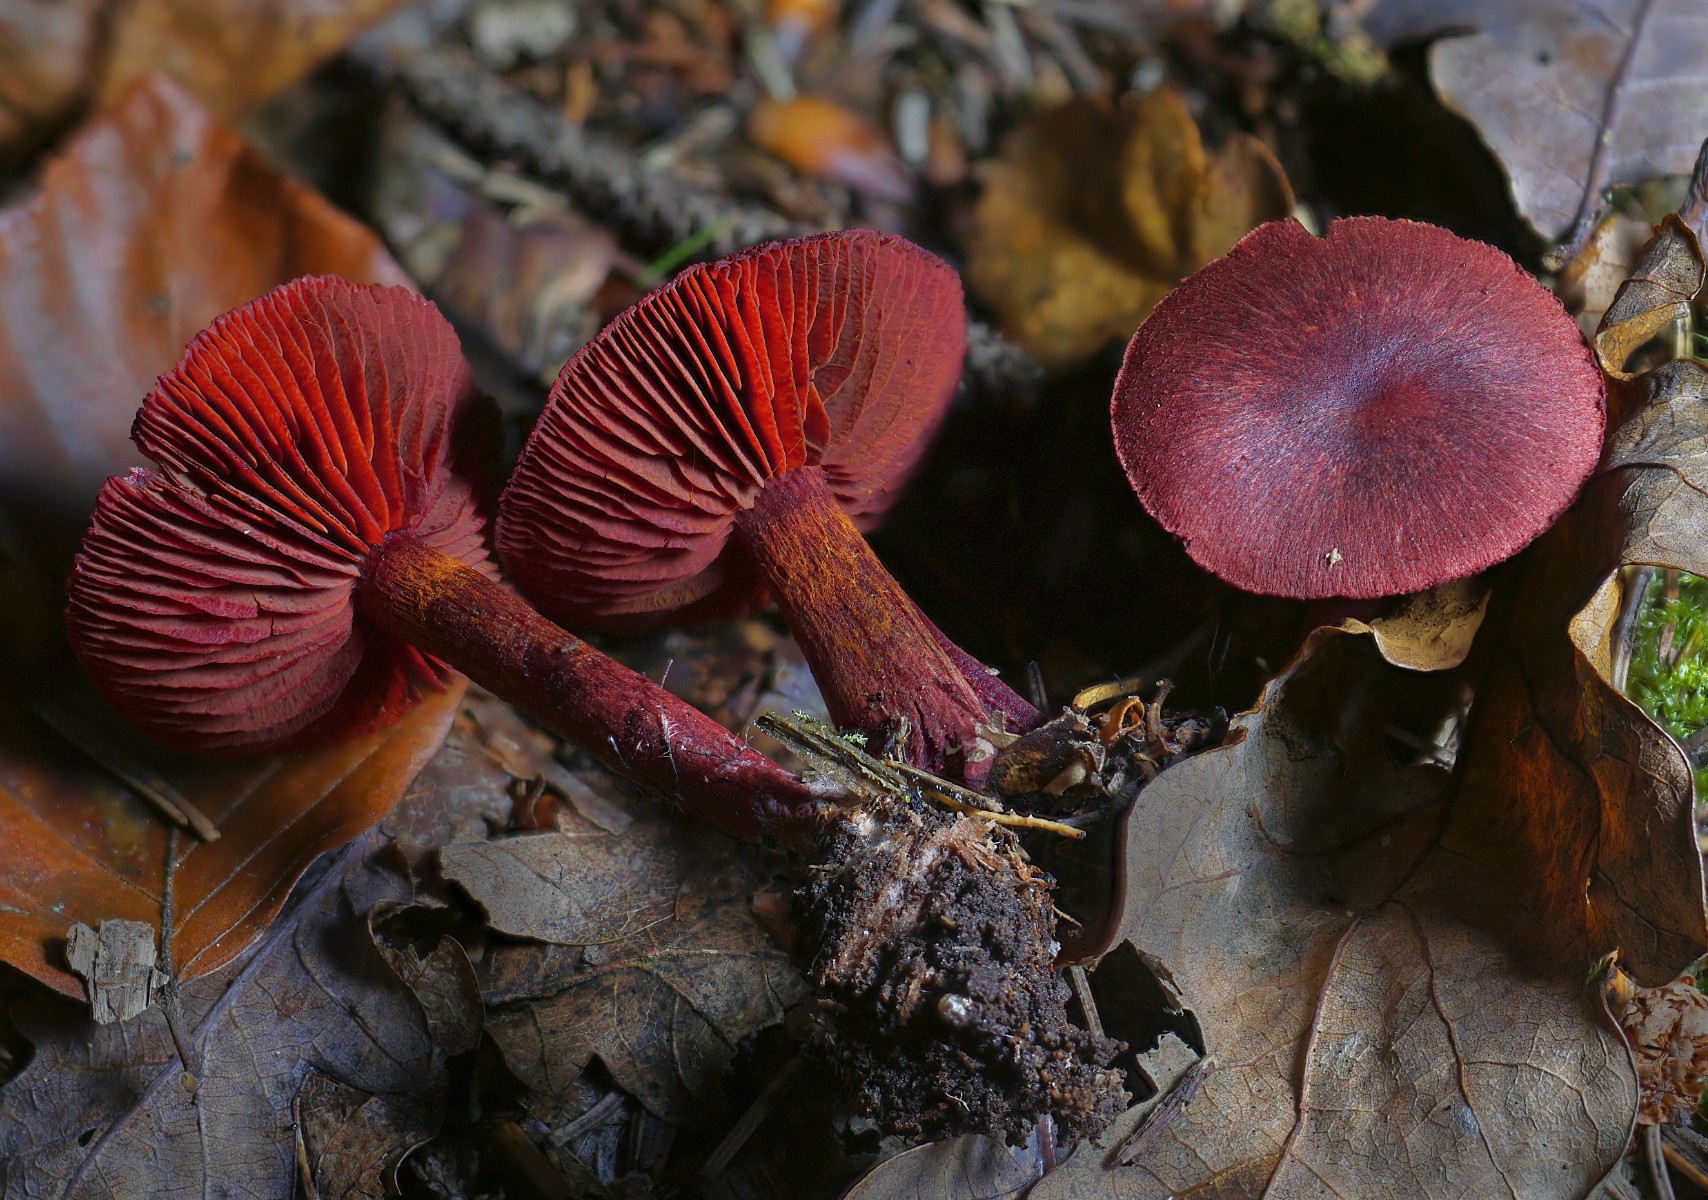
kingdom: Fungi
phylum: Basidiomycota
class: Agaricomycetes
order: Agaricales
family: Cortinariaceae
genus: Cortinarius
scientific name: Cortinarius sanguineus
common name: Bloodred webcap
